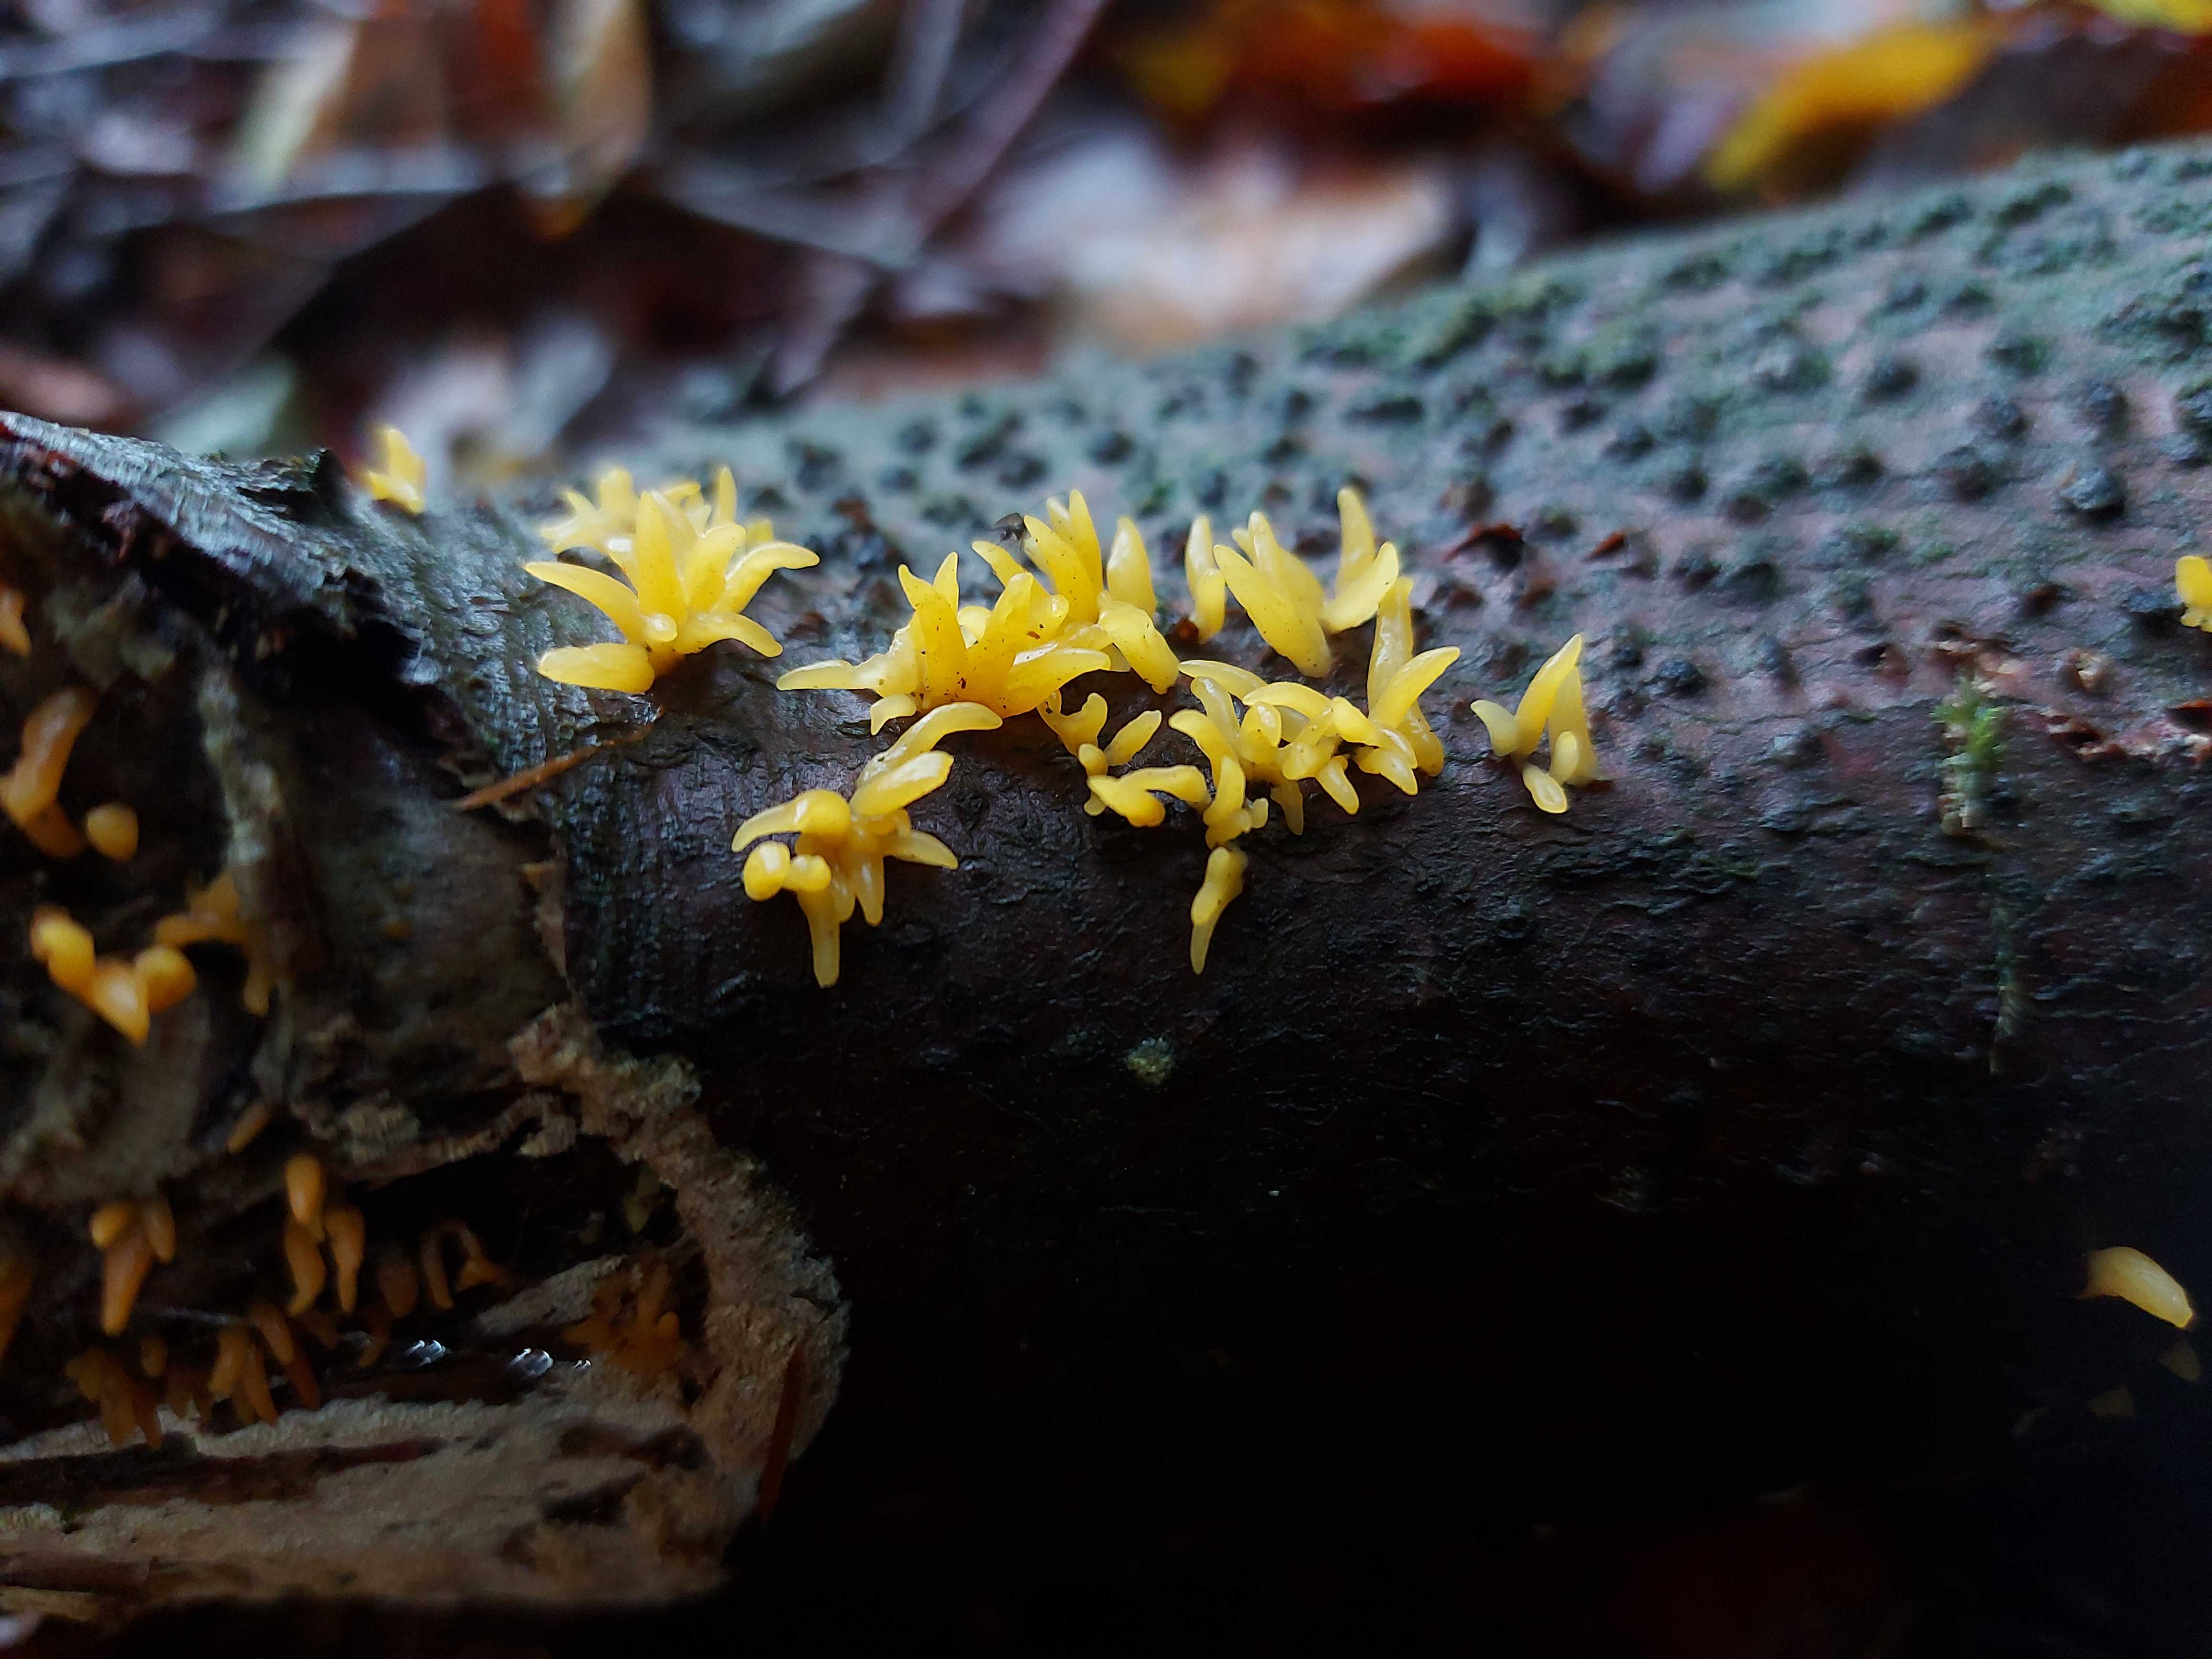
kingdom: Fungi
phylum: Basidiomycota
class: Dacrymycetes
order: Dacrymycetales
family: Dacrymycetaceae
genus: Calocera
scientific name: Calocera cornea
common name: liden guldgaffel
